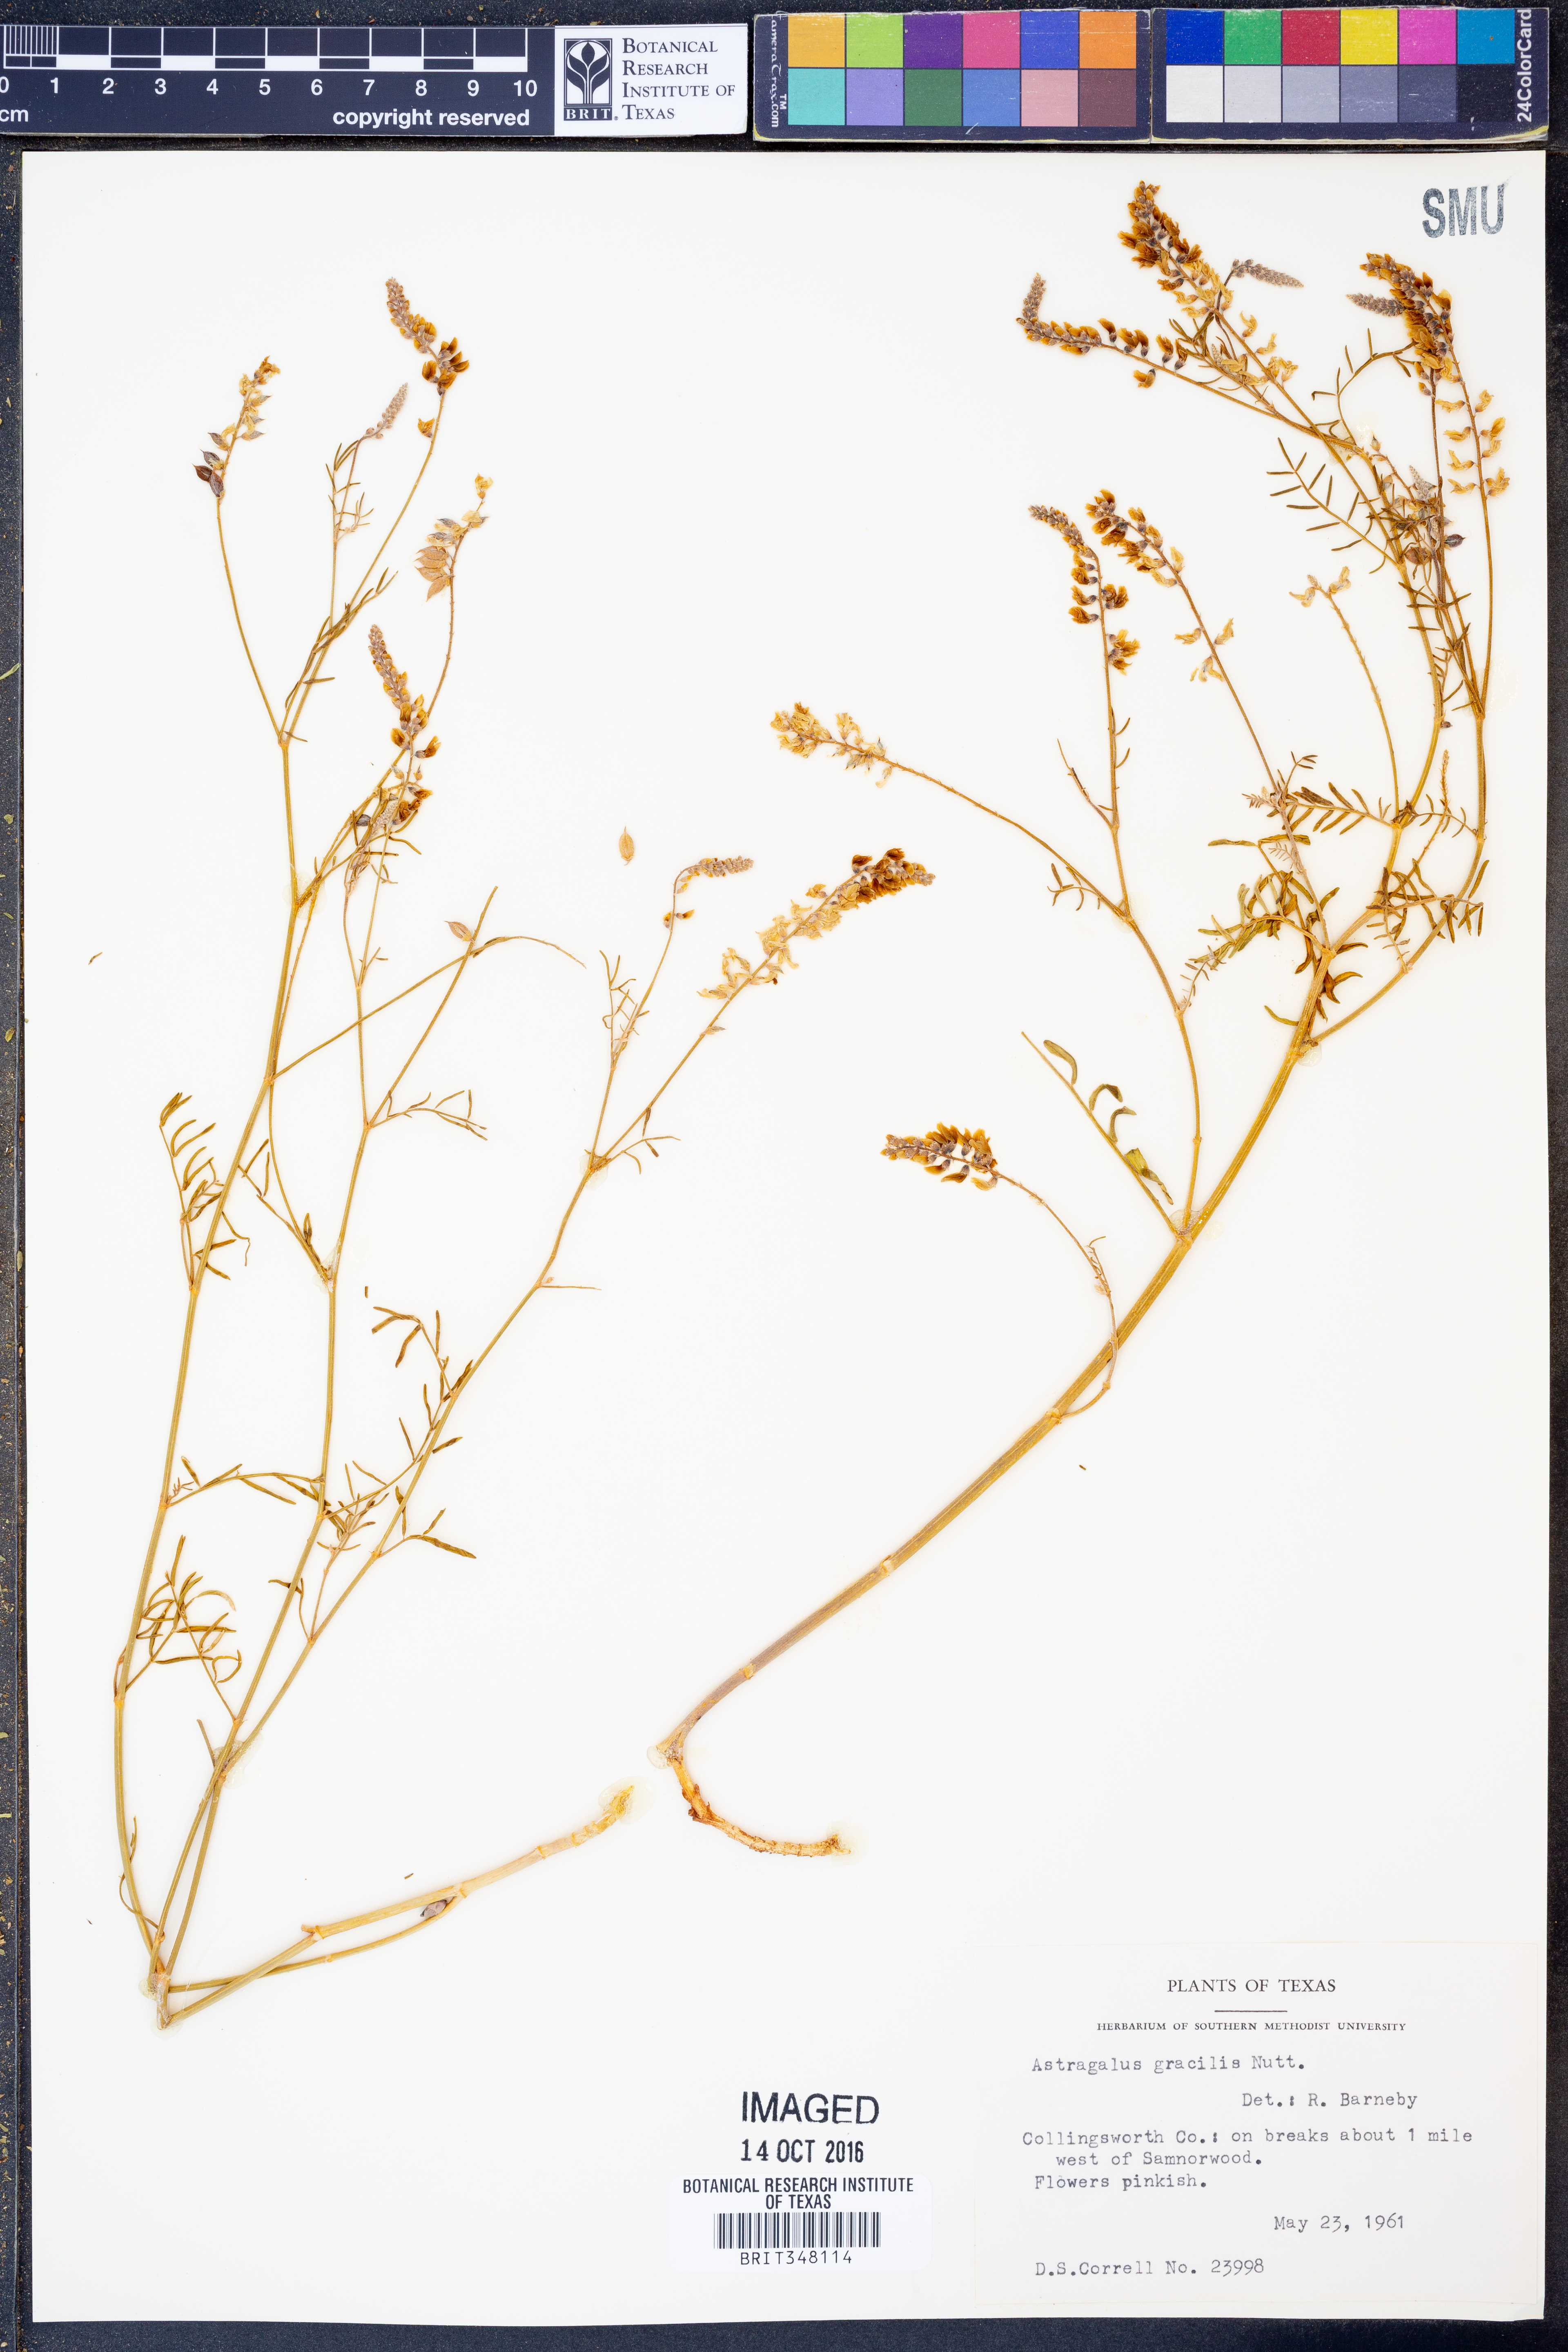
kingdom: Plantae
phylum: Tracheophyta
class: Magnoliopsida
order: Fabales
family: Fabaceae
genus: Astragalus
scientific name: Astragalus gracilis
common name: Slender milk-vetch
